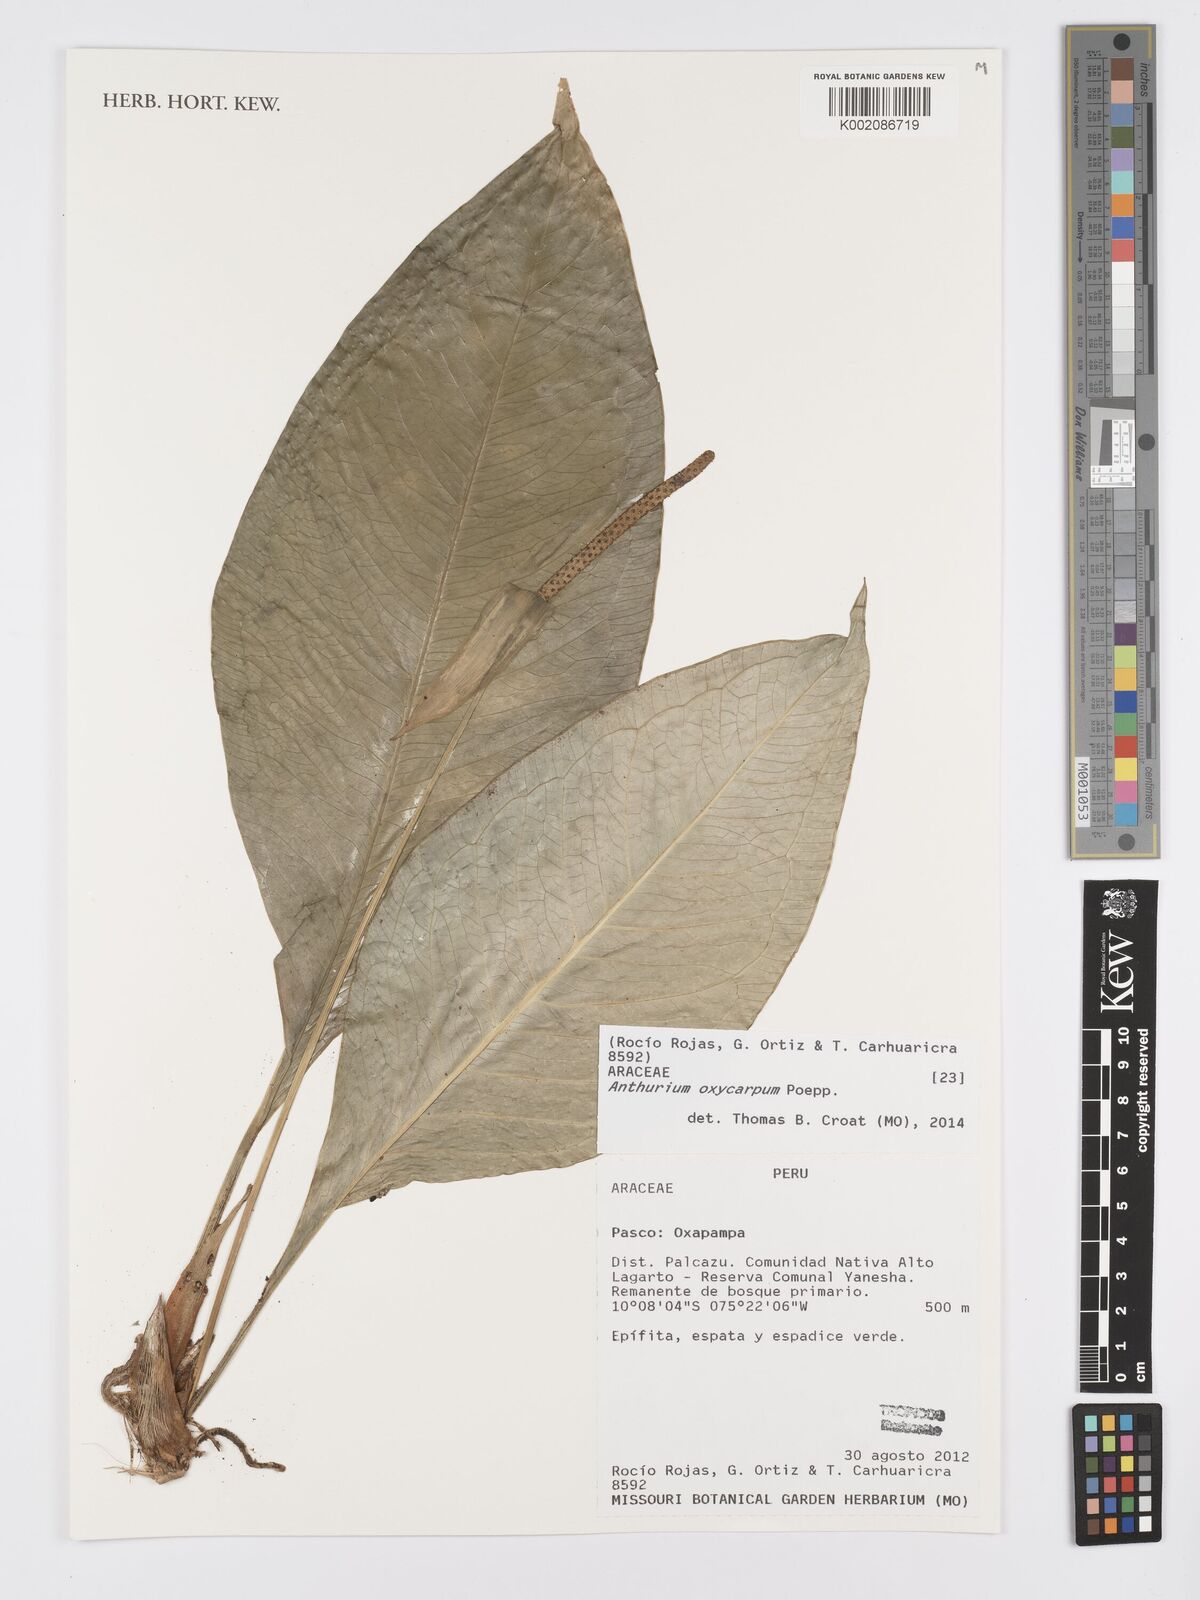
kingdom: Plantae
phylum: Tracheophyta
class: Liliopsida
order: Alismatales
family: Araceae
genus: Anthurium
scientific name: Anthurium oxycarpum
